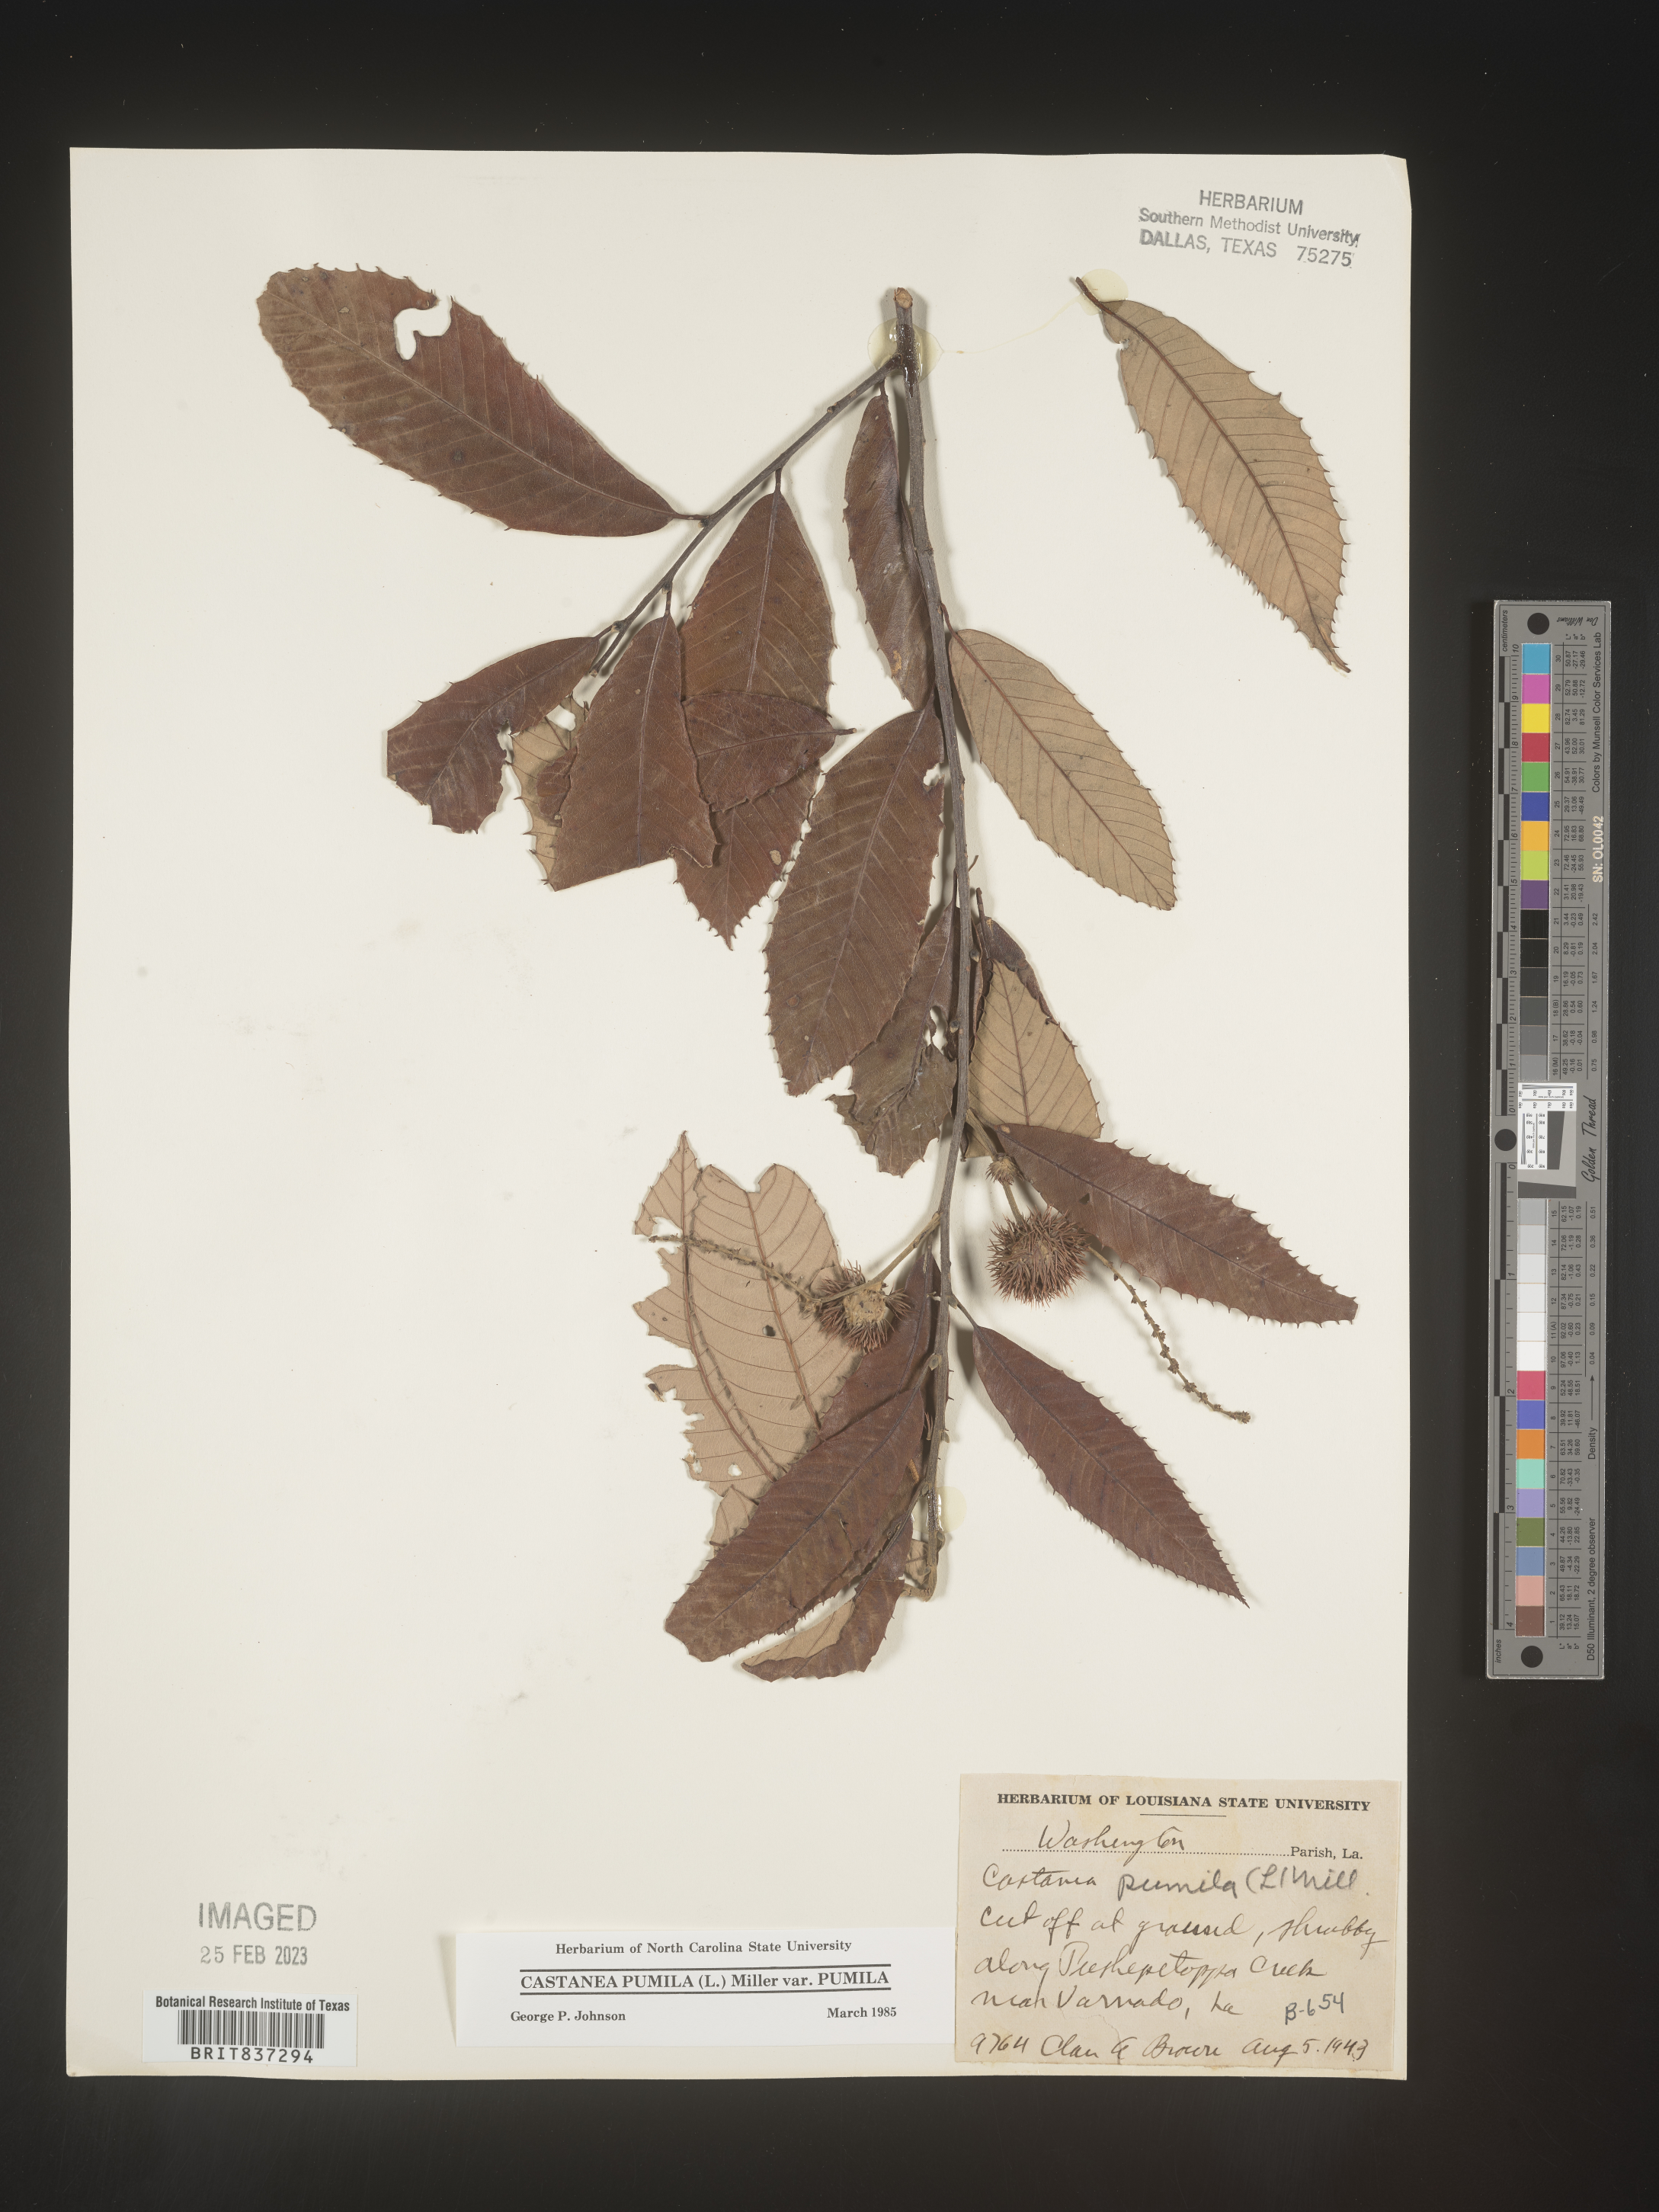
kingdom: Plantae
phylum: Tracheophyta
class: Magnoliopsida
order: Fagales
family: Fagaceae
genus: Castanea
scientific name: Castanea pumila
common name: Chinkapin
